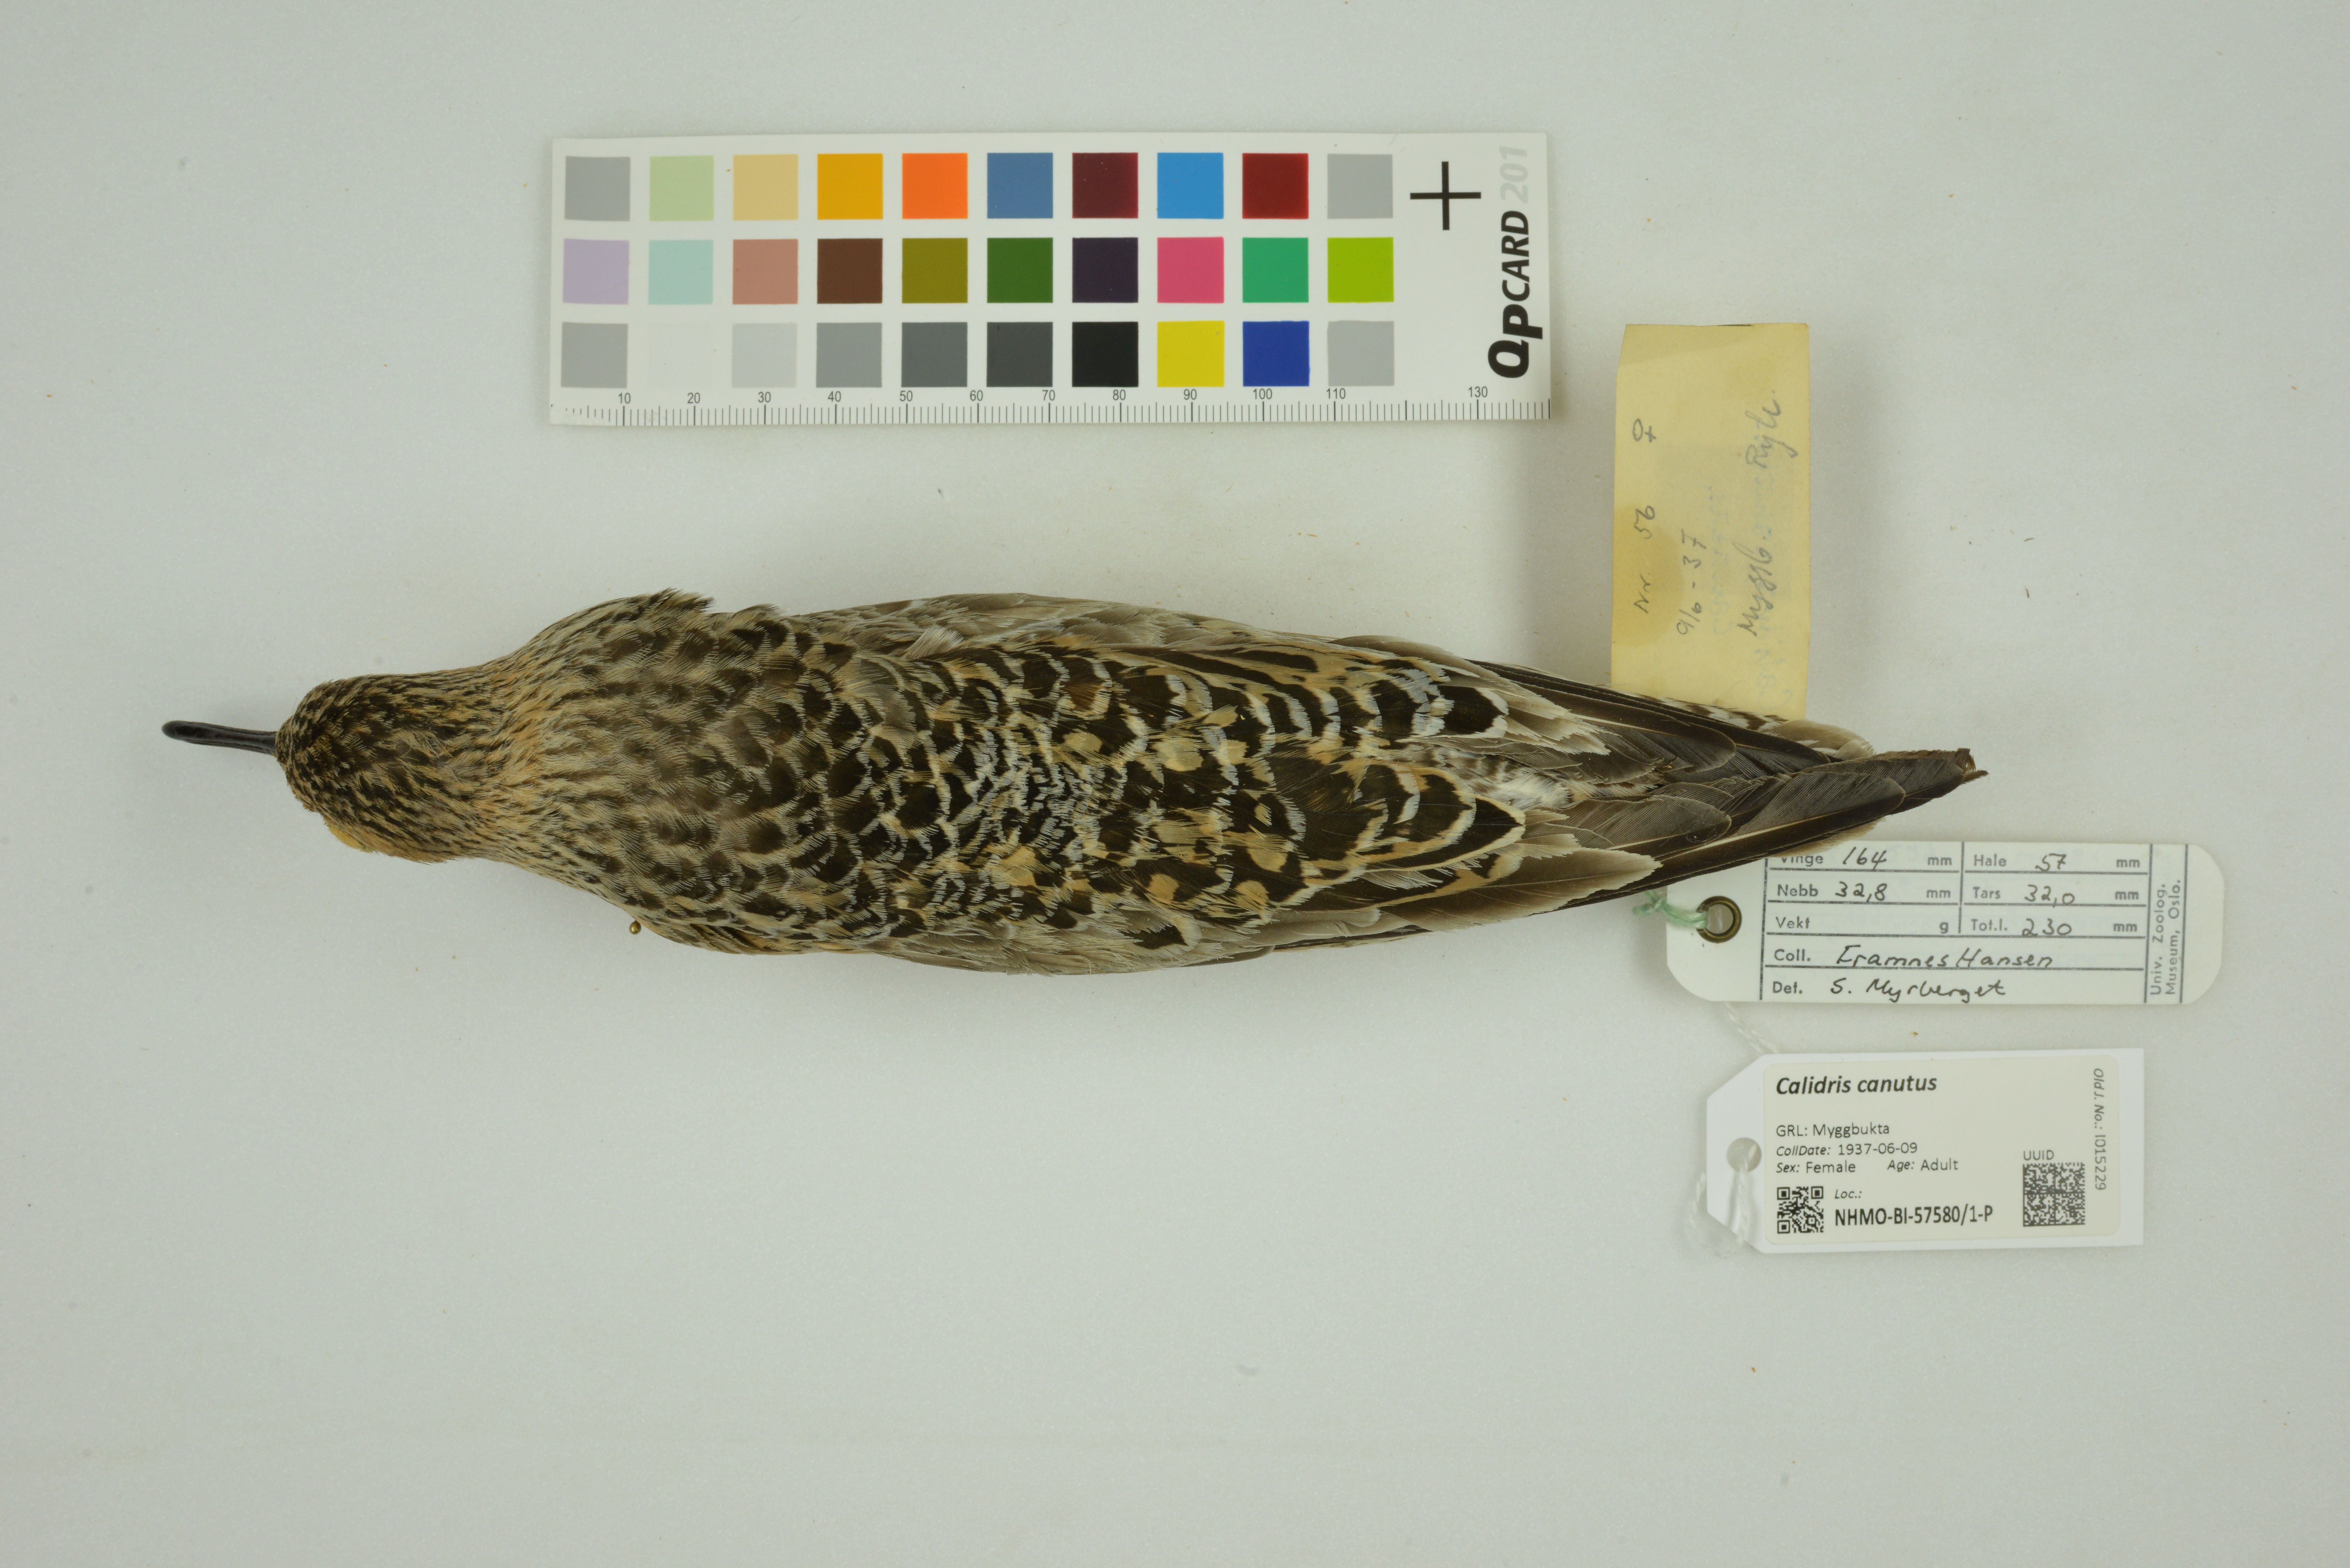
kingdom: Animalia
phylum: Chordata
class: Aves
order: Charadriiformes
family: Scolopacidae
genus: Calidris
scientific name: Calidris canutus
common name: Red knot
